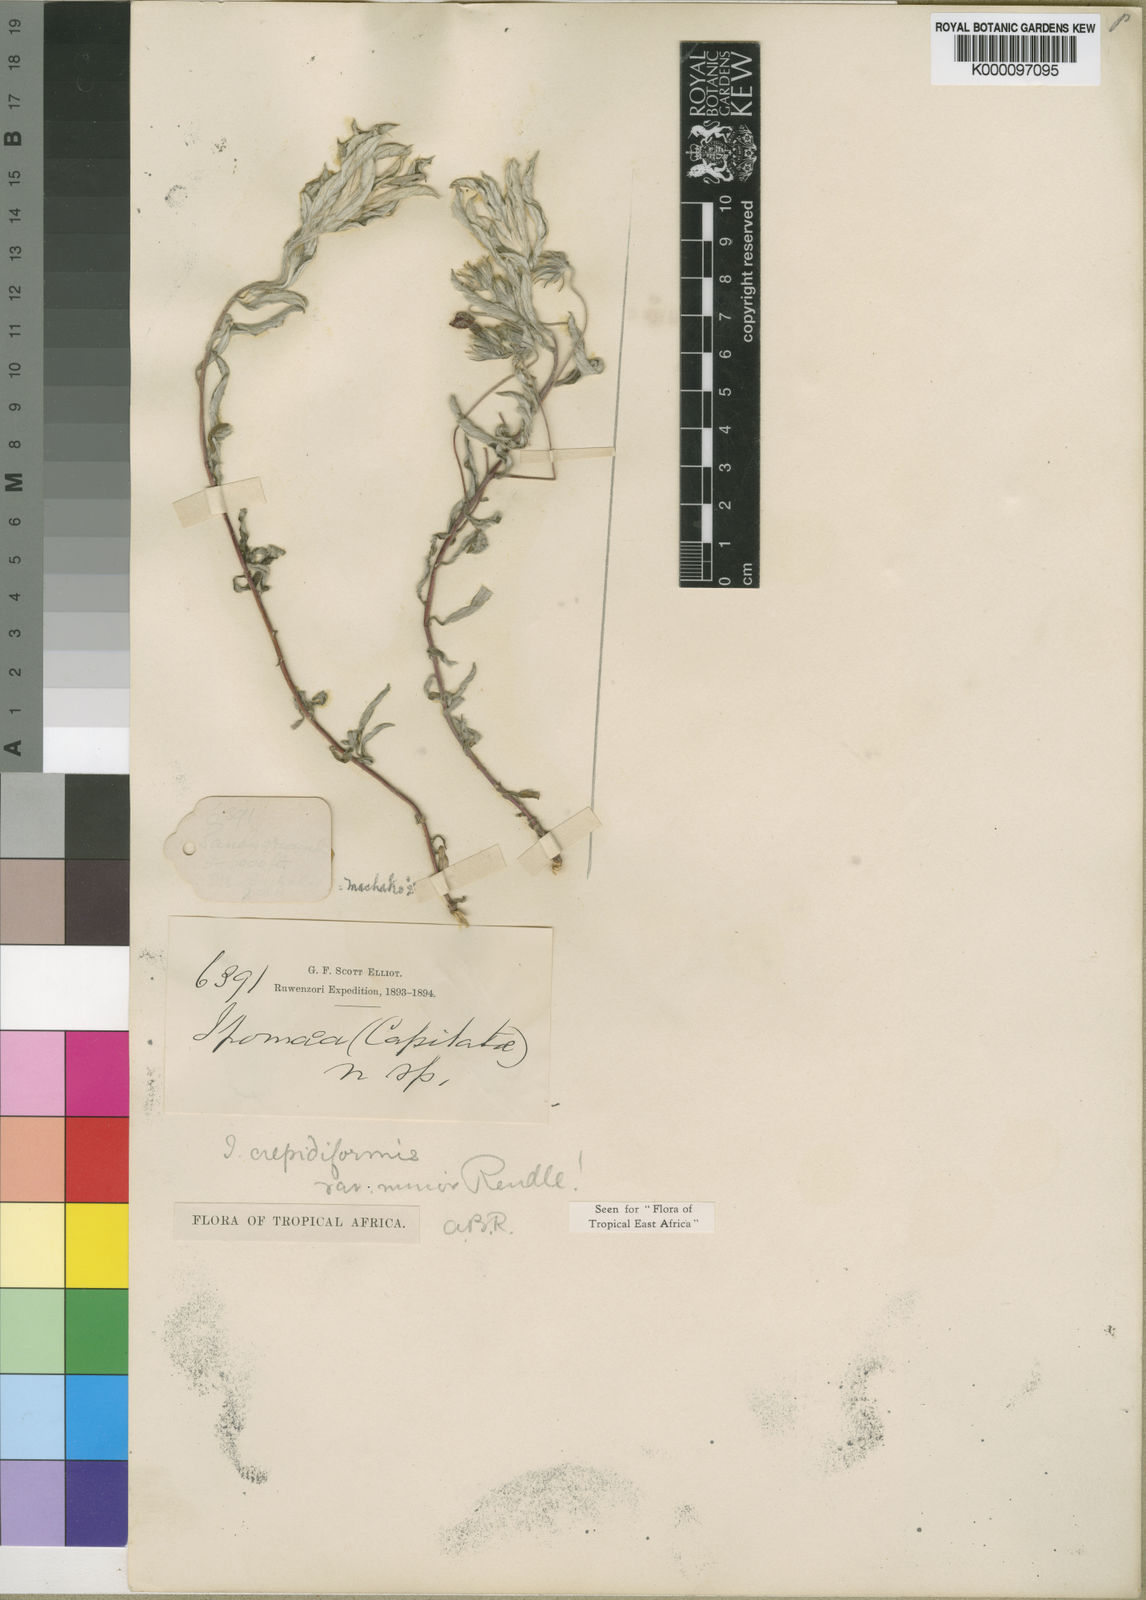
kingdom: Plantae
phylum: Tracheophyta
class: Magnoliopsida
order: Solanales
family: Convolvulaceae
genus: Ipomoea
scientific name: Ipomoea crepidiformis
